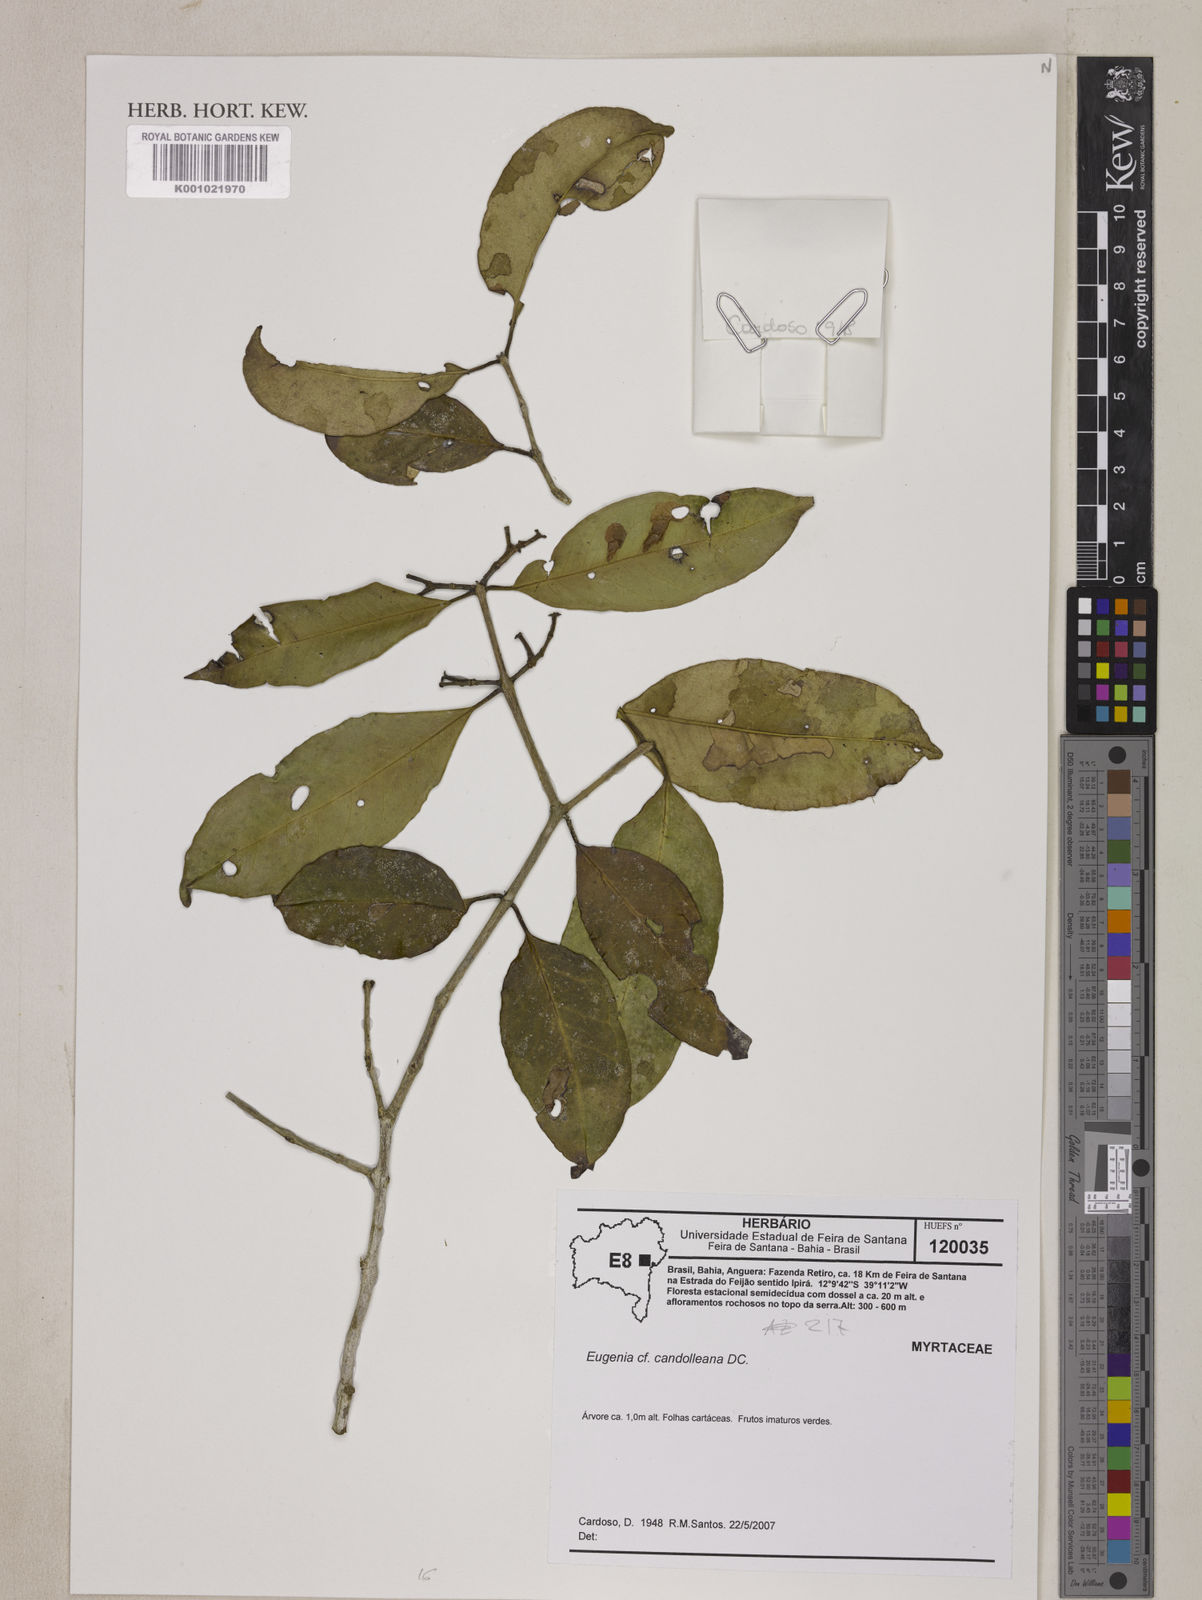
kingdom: Plantae
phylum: Tracheophyta
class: Magnoliopsida
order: Myrtales
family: Myrtaceae
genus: Eugenia
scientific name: Eugenia candolleana
